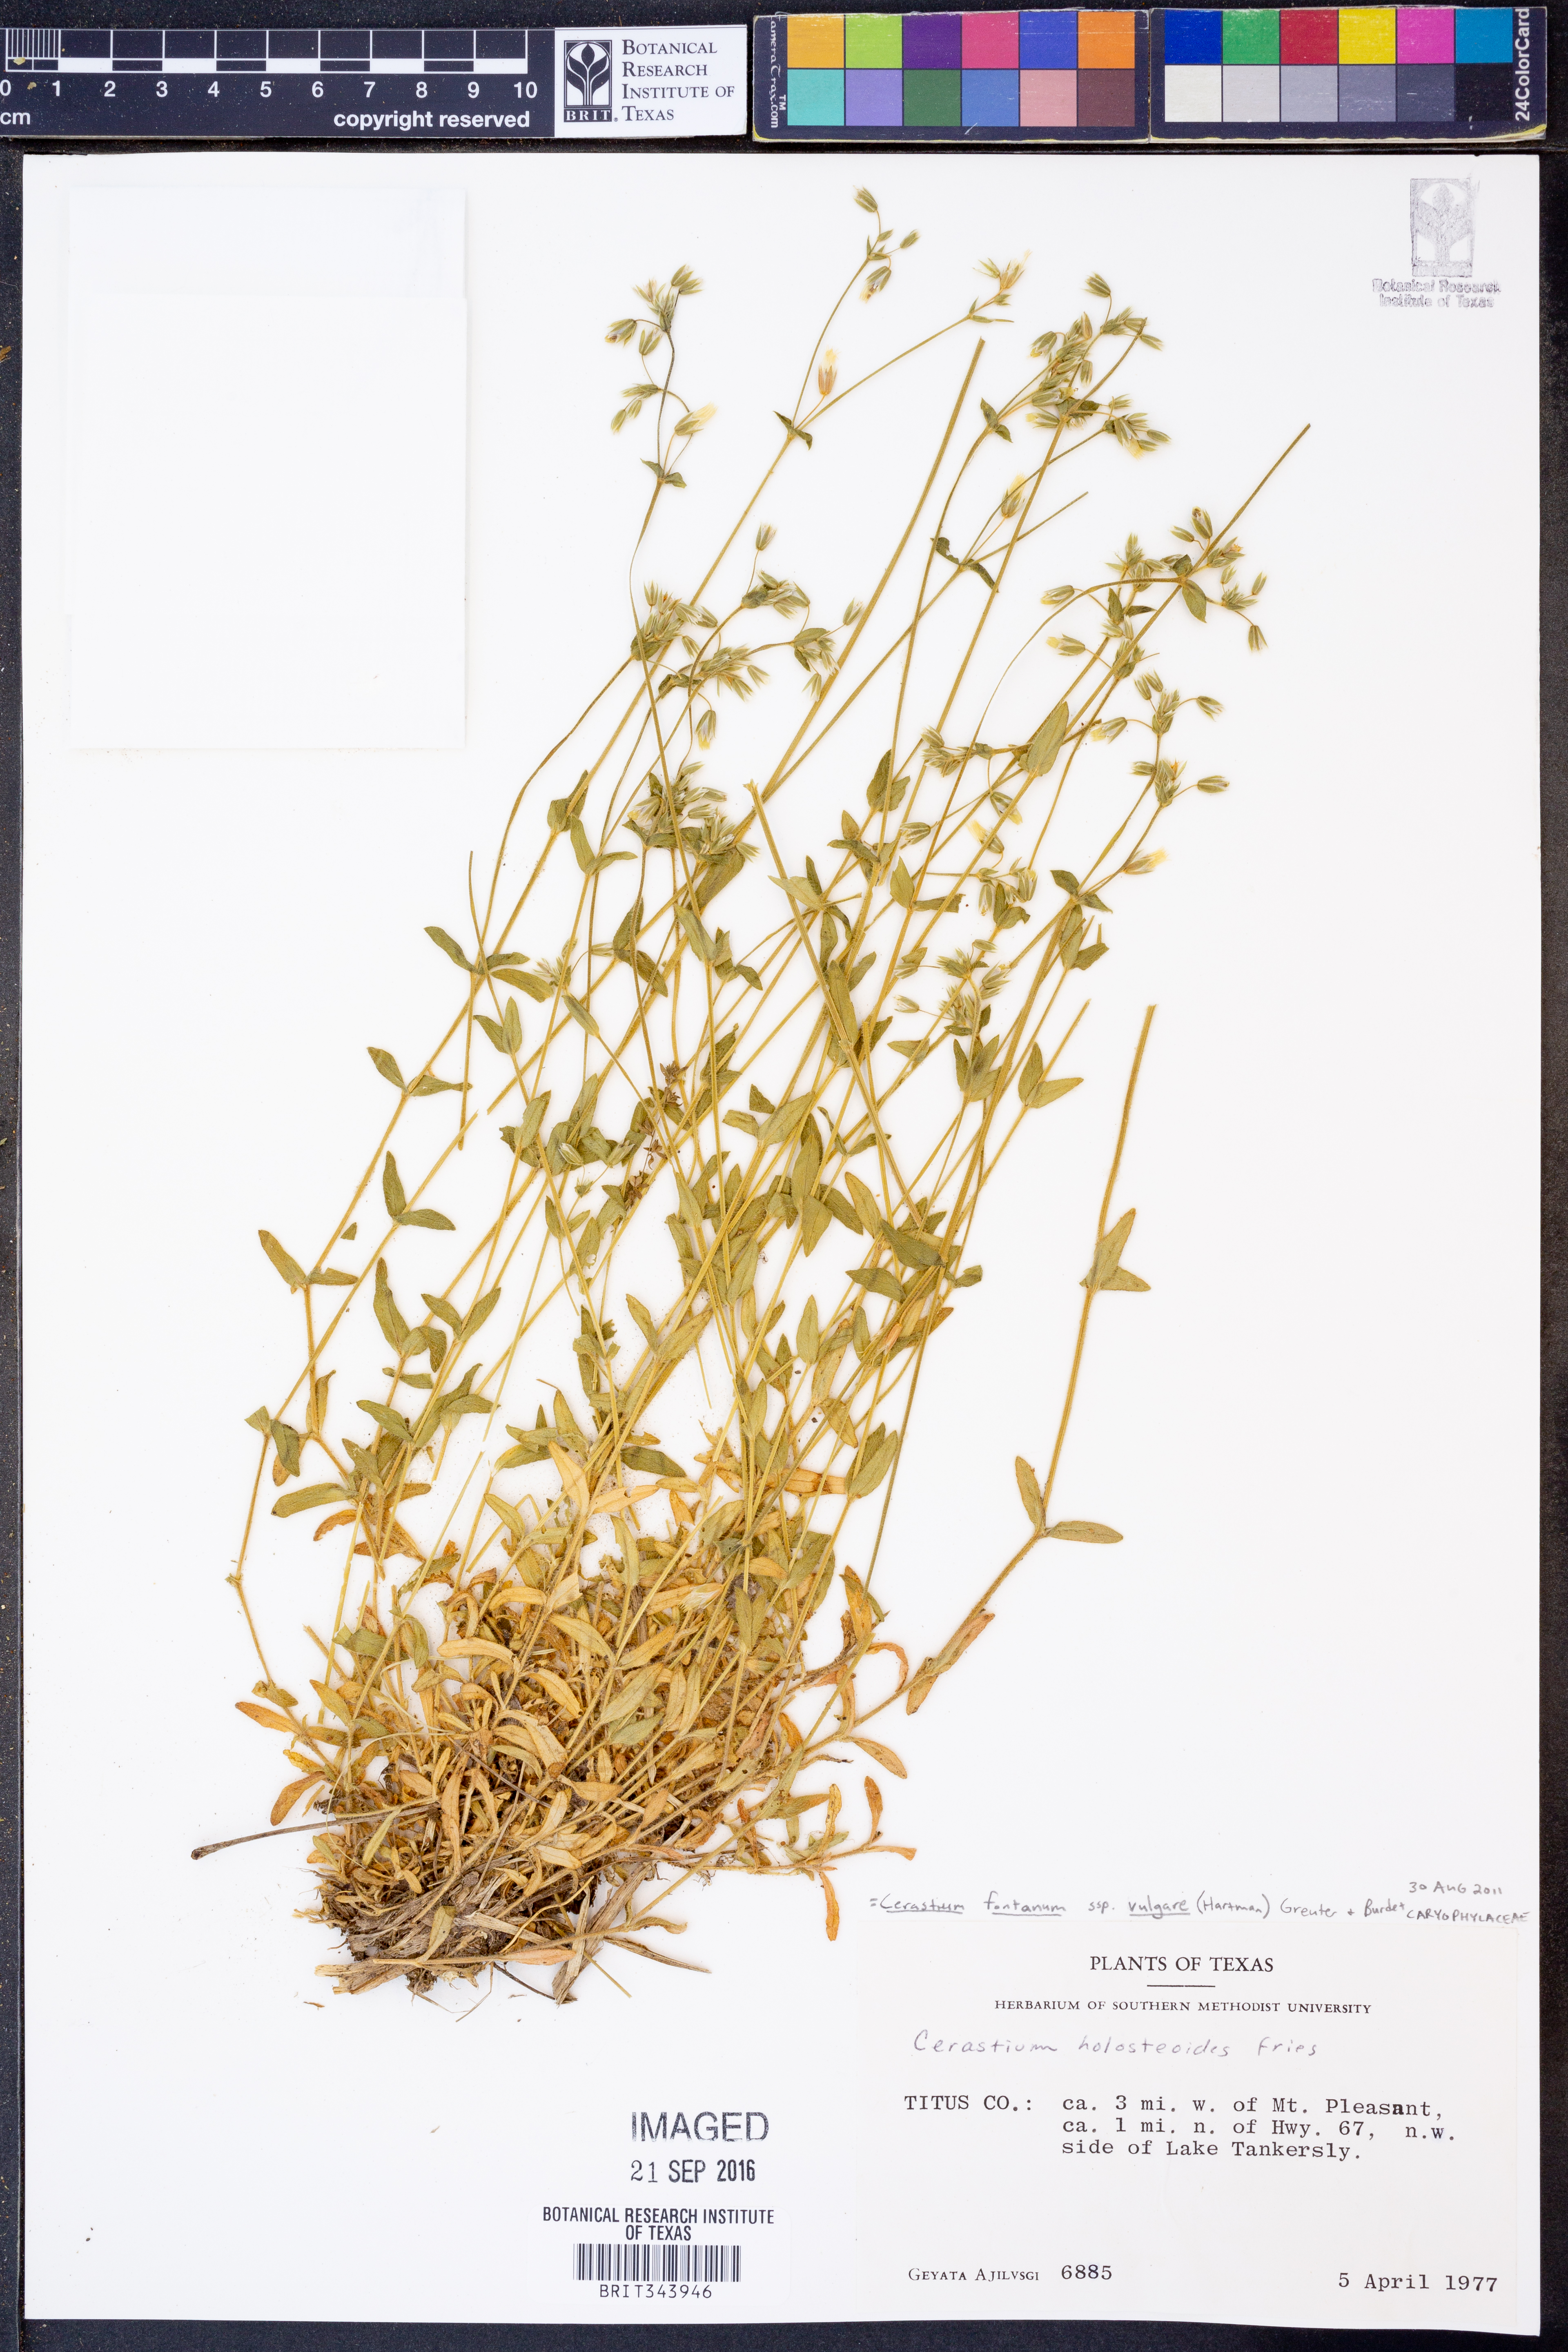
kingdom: Plantae
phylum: Tracheophyta
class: Magnoliopsida
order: Caryophyllales
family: Caryophyllaceae
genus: Cerastium
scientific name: Cerastium holosteoides
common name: Big chickweed
